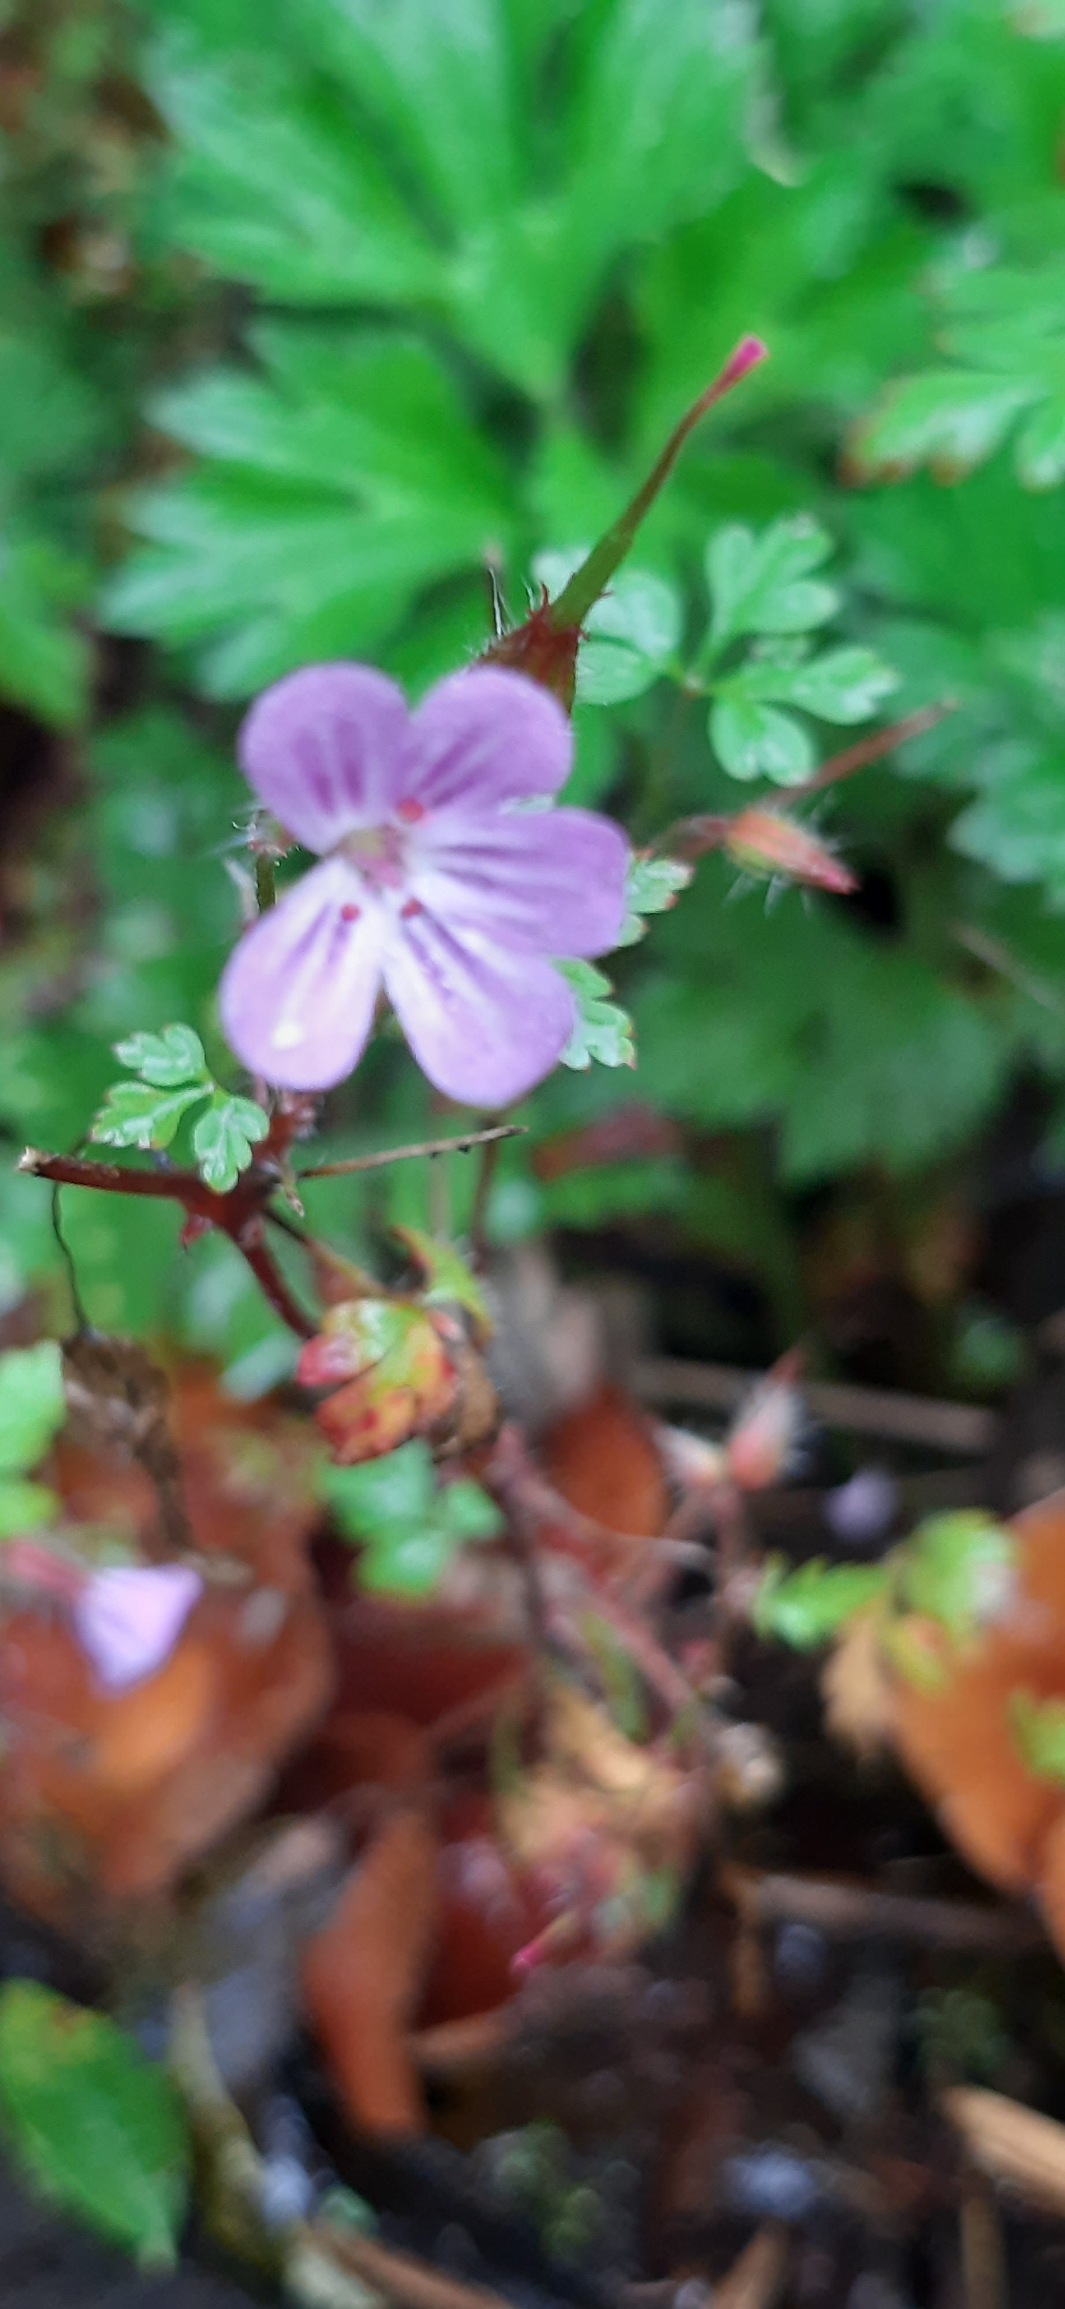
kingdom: Plantae
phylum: Tracheophyta
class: Magnoliopsida
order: Geraniales
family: Geraniaceae
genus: Geranium
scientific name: Geranium robertianum
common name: Stinkende storkenæb
